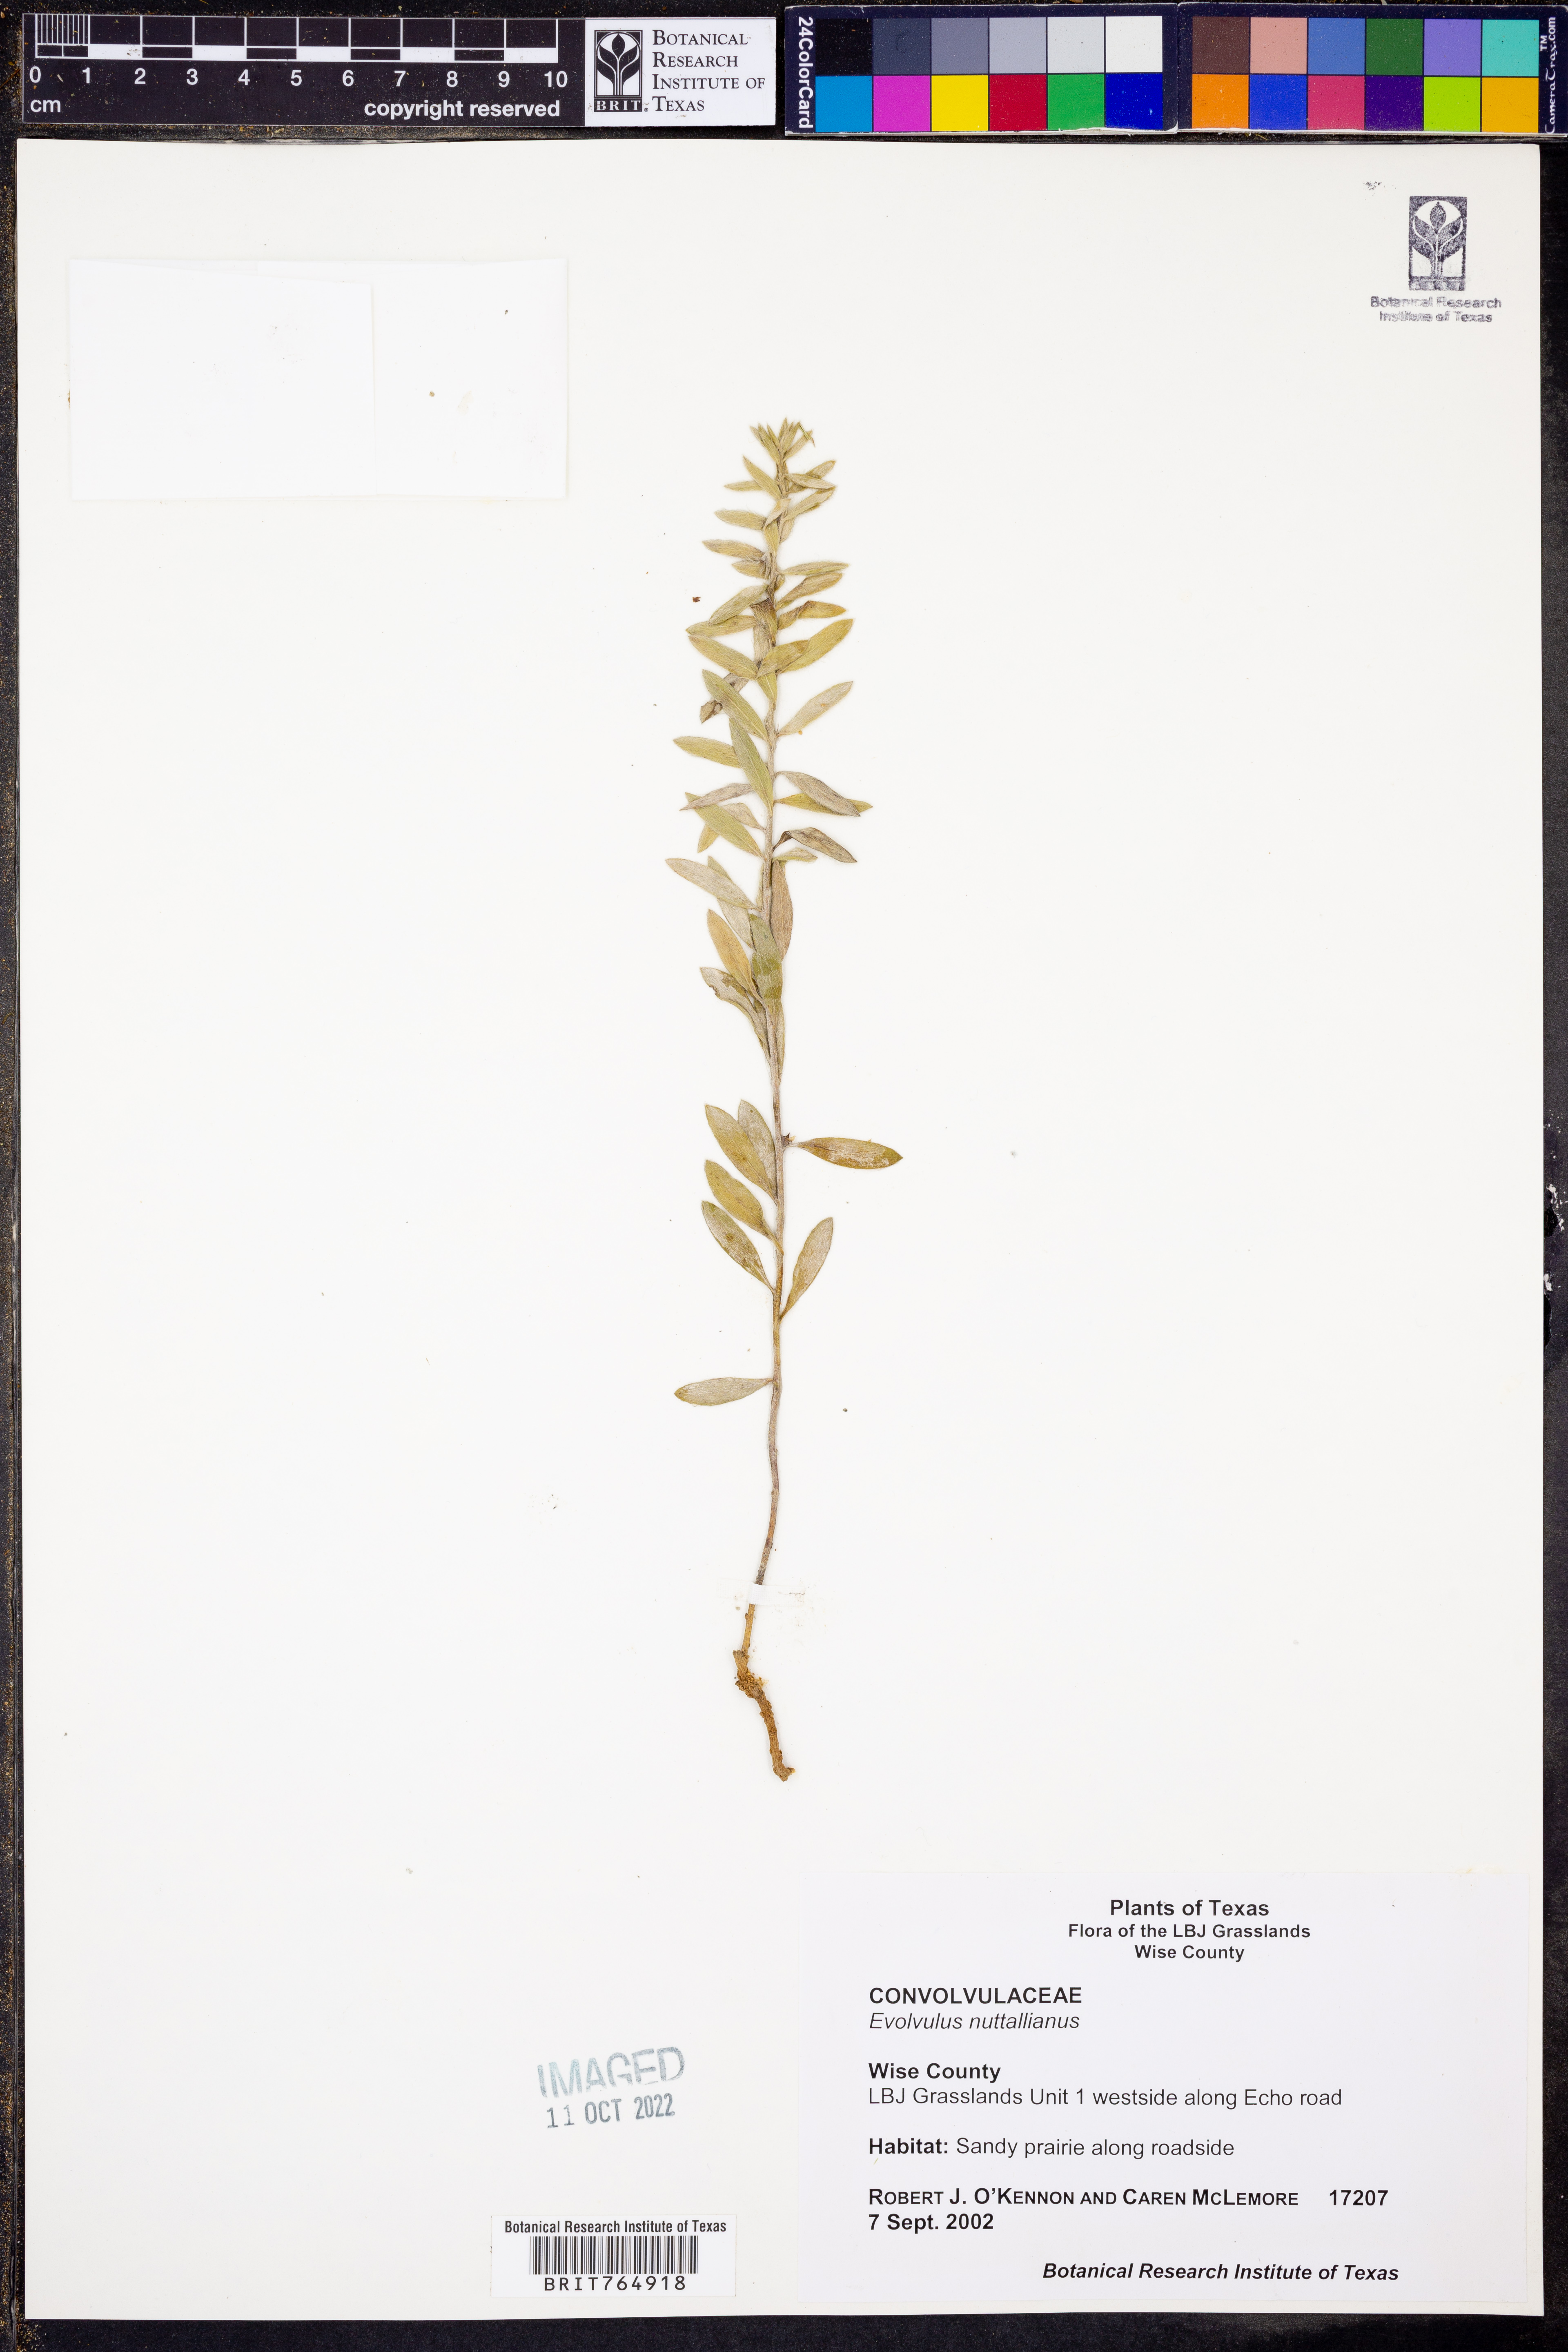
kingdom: Plantae
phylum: Tracheophyta
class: Magnoliopsida
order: Solanales
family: Convolvulaceae
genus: Evolvulus
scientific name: Evolvulus nuttallianus
